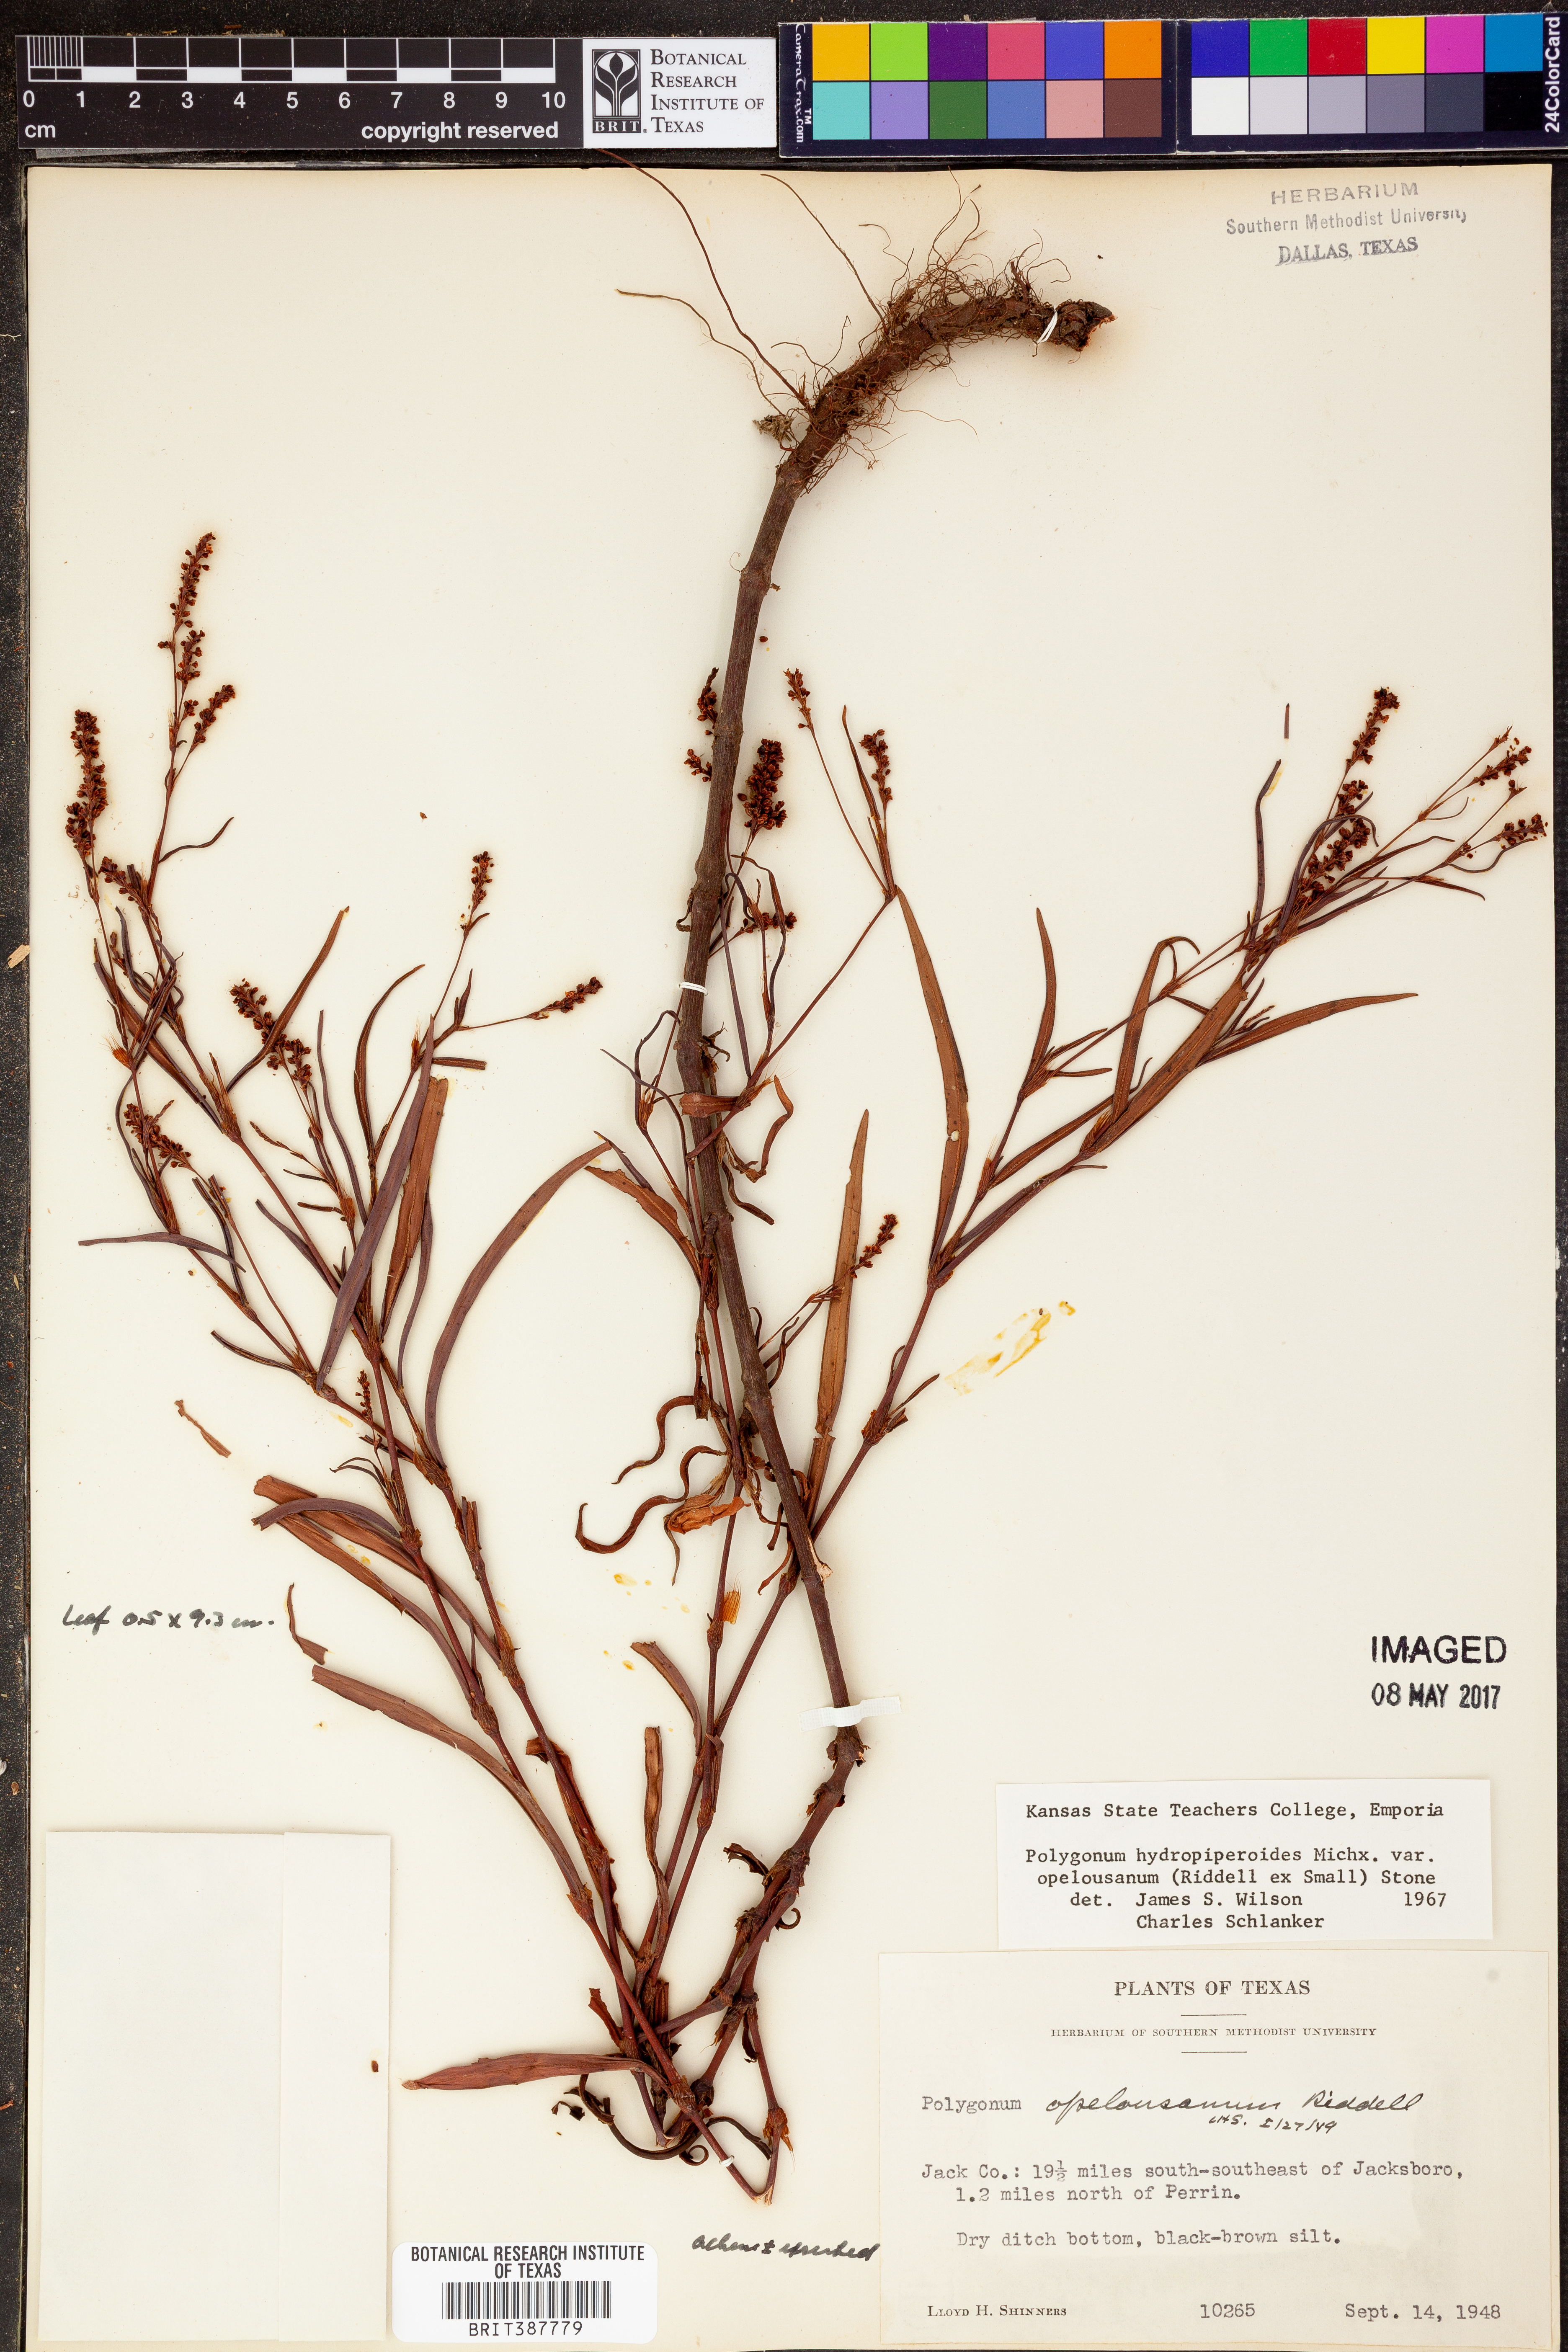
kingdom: Plantae
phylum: Tracheophyta
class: Magnoliopsida
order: Caryophyllales
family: Polygonaceae
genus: Persicaria
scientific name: Persicaria hydropiperoides
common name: Swamp smartweed
